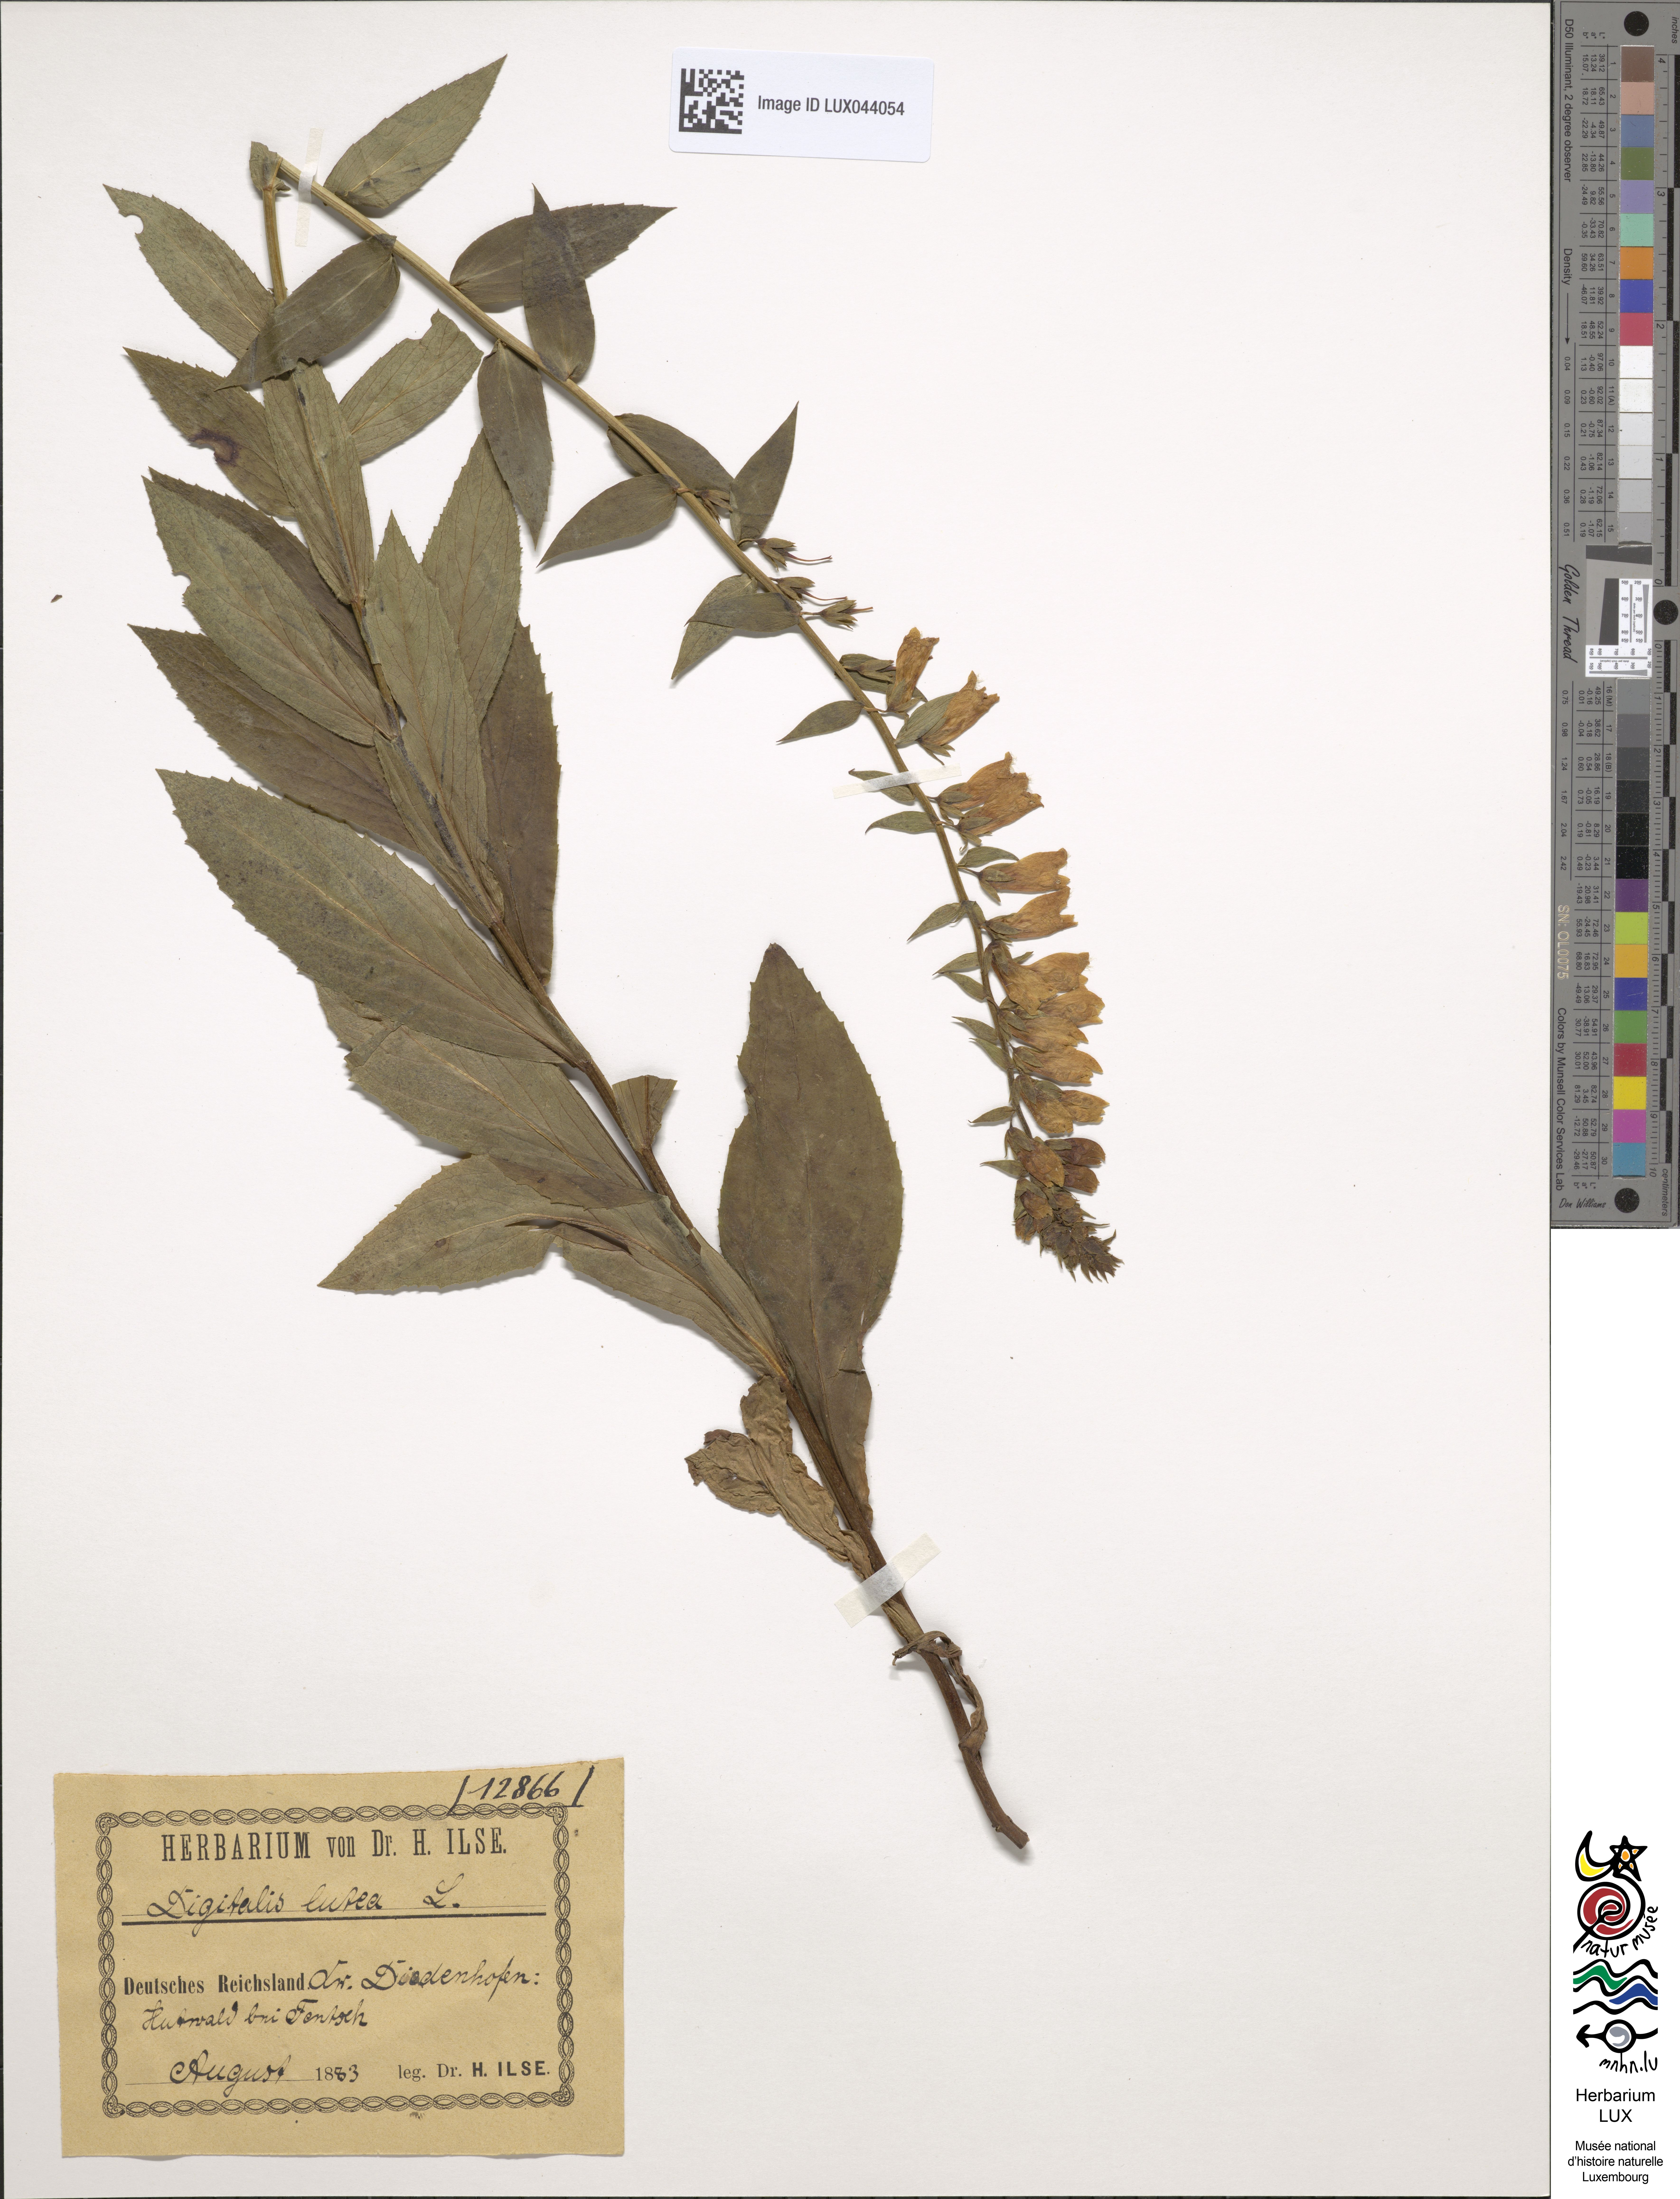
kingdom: Plantae
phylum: Tracheophyta
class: Magnoliopsida
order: Lamiales
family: Plantaginaceae
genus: Digitalis
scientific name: Digitalis lutea
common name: Straw foxglove
